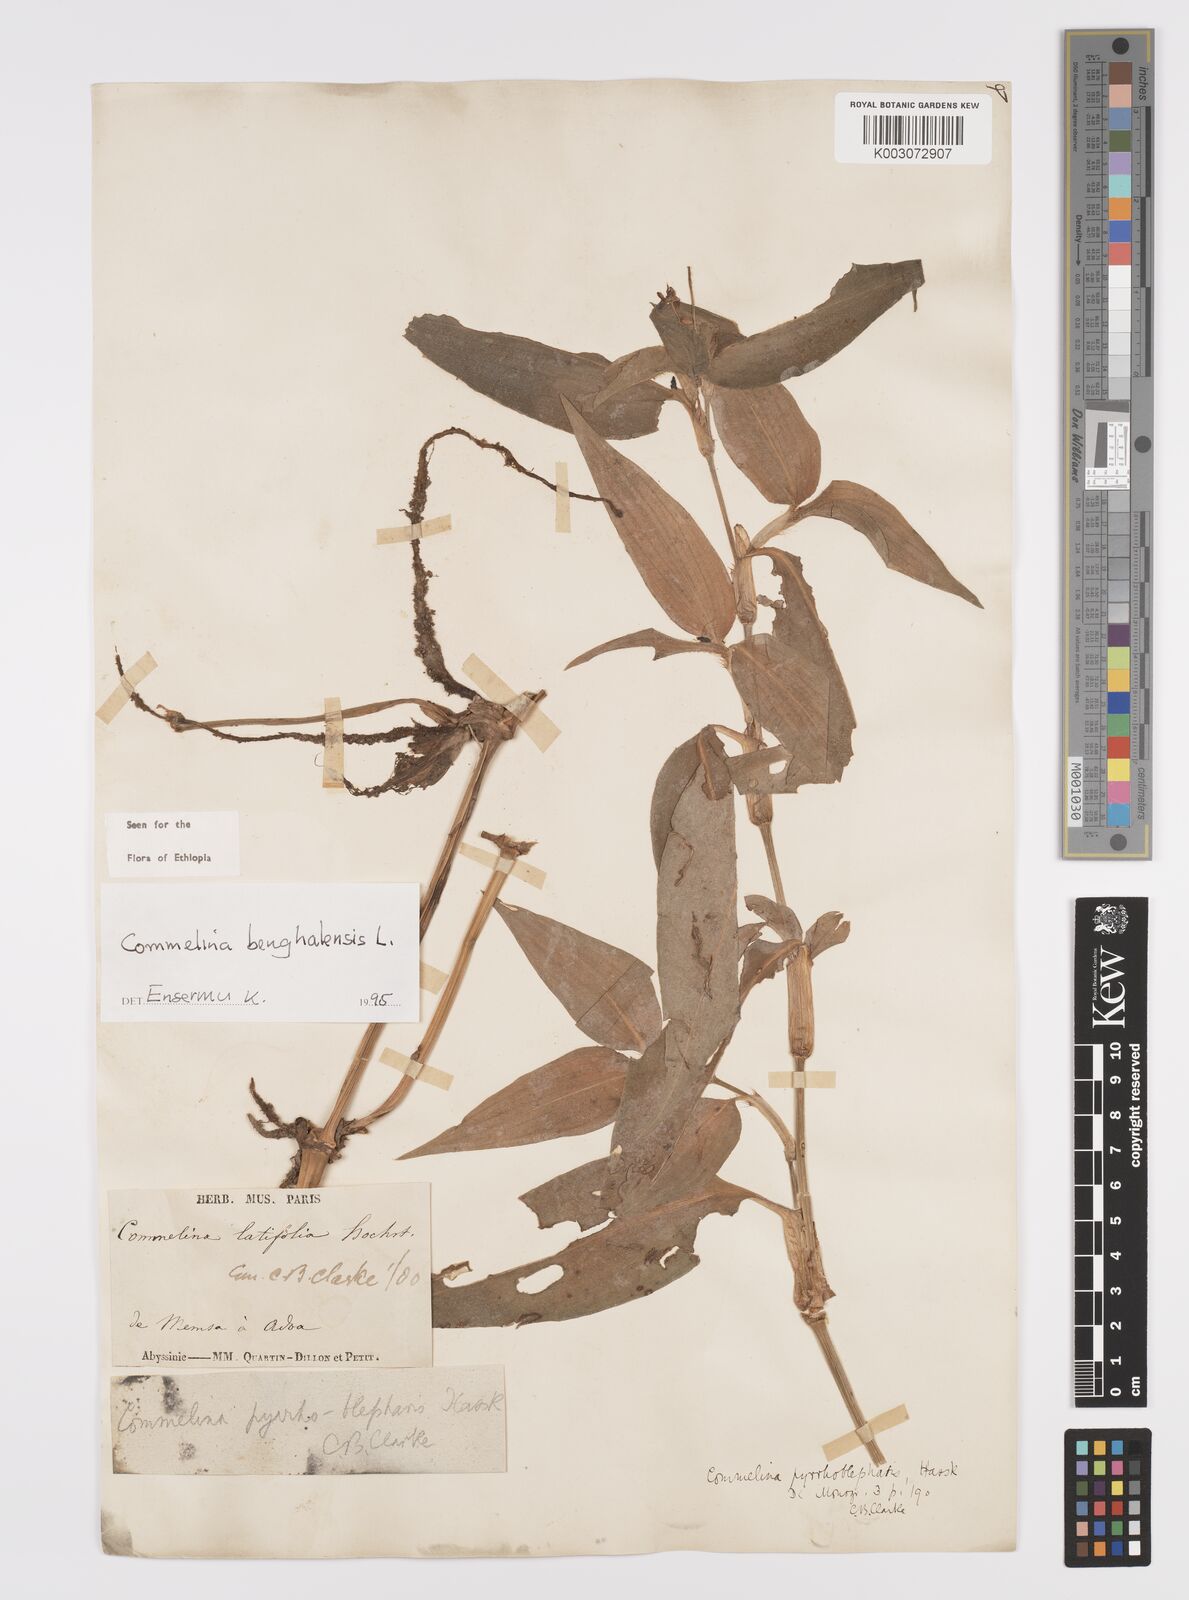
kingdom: Plantae
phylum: Tracheophyta
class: Liliopsida
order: Commelinales
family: Commelinaceae
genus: Commelina
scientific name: Commelina benghalensis
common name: Jio
